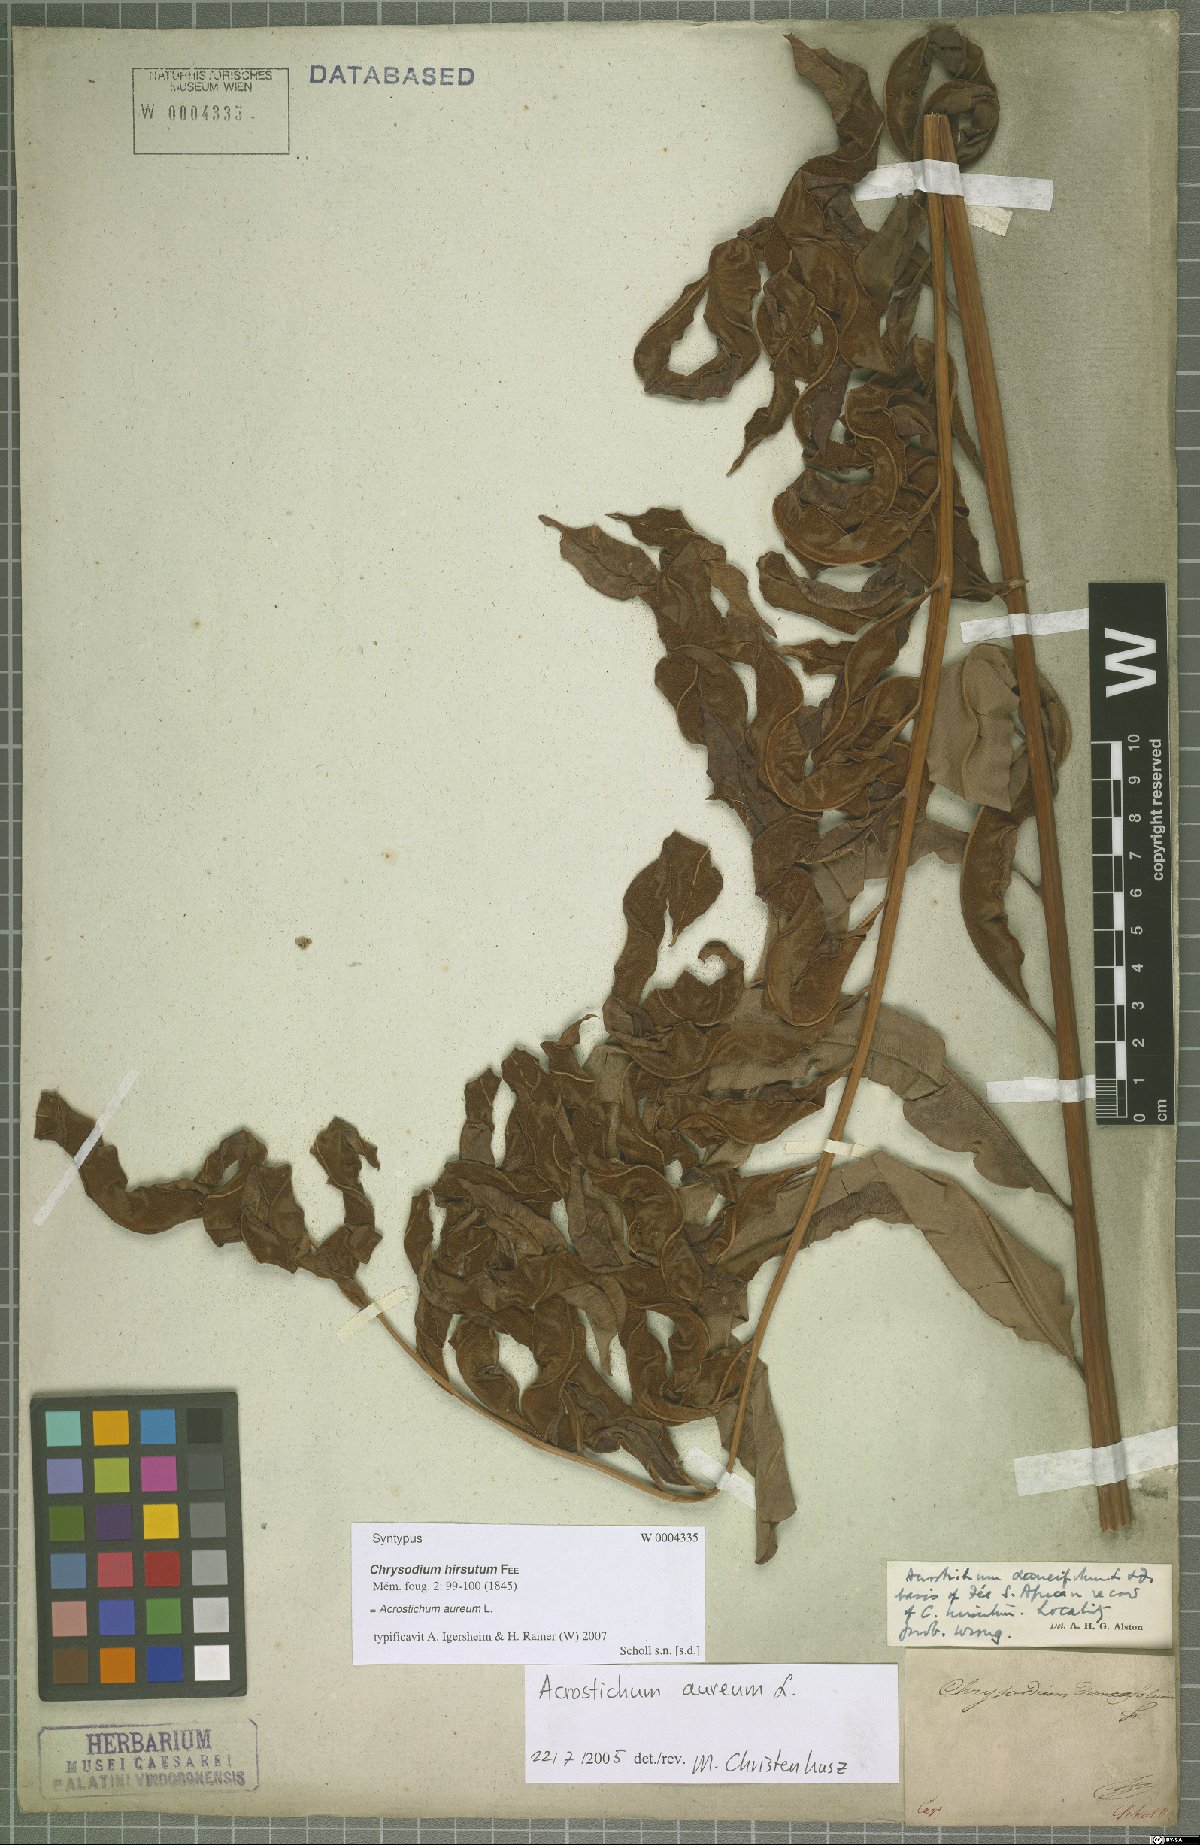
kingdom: Plantae
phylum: Tracheophyta
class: Polypodiopsida
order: Polypodiales
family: Pteridaceae
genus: Acrostichum
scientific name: Acrostichum aureum
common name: Leather fern
